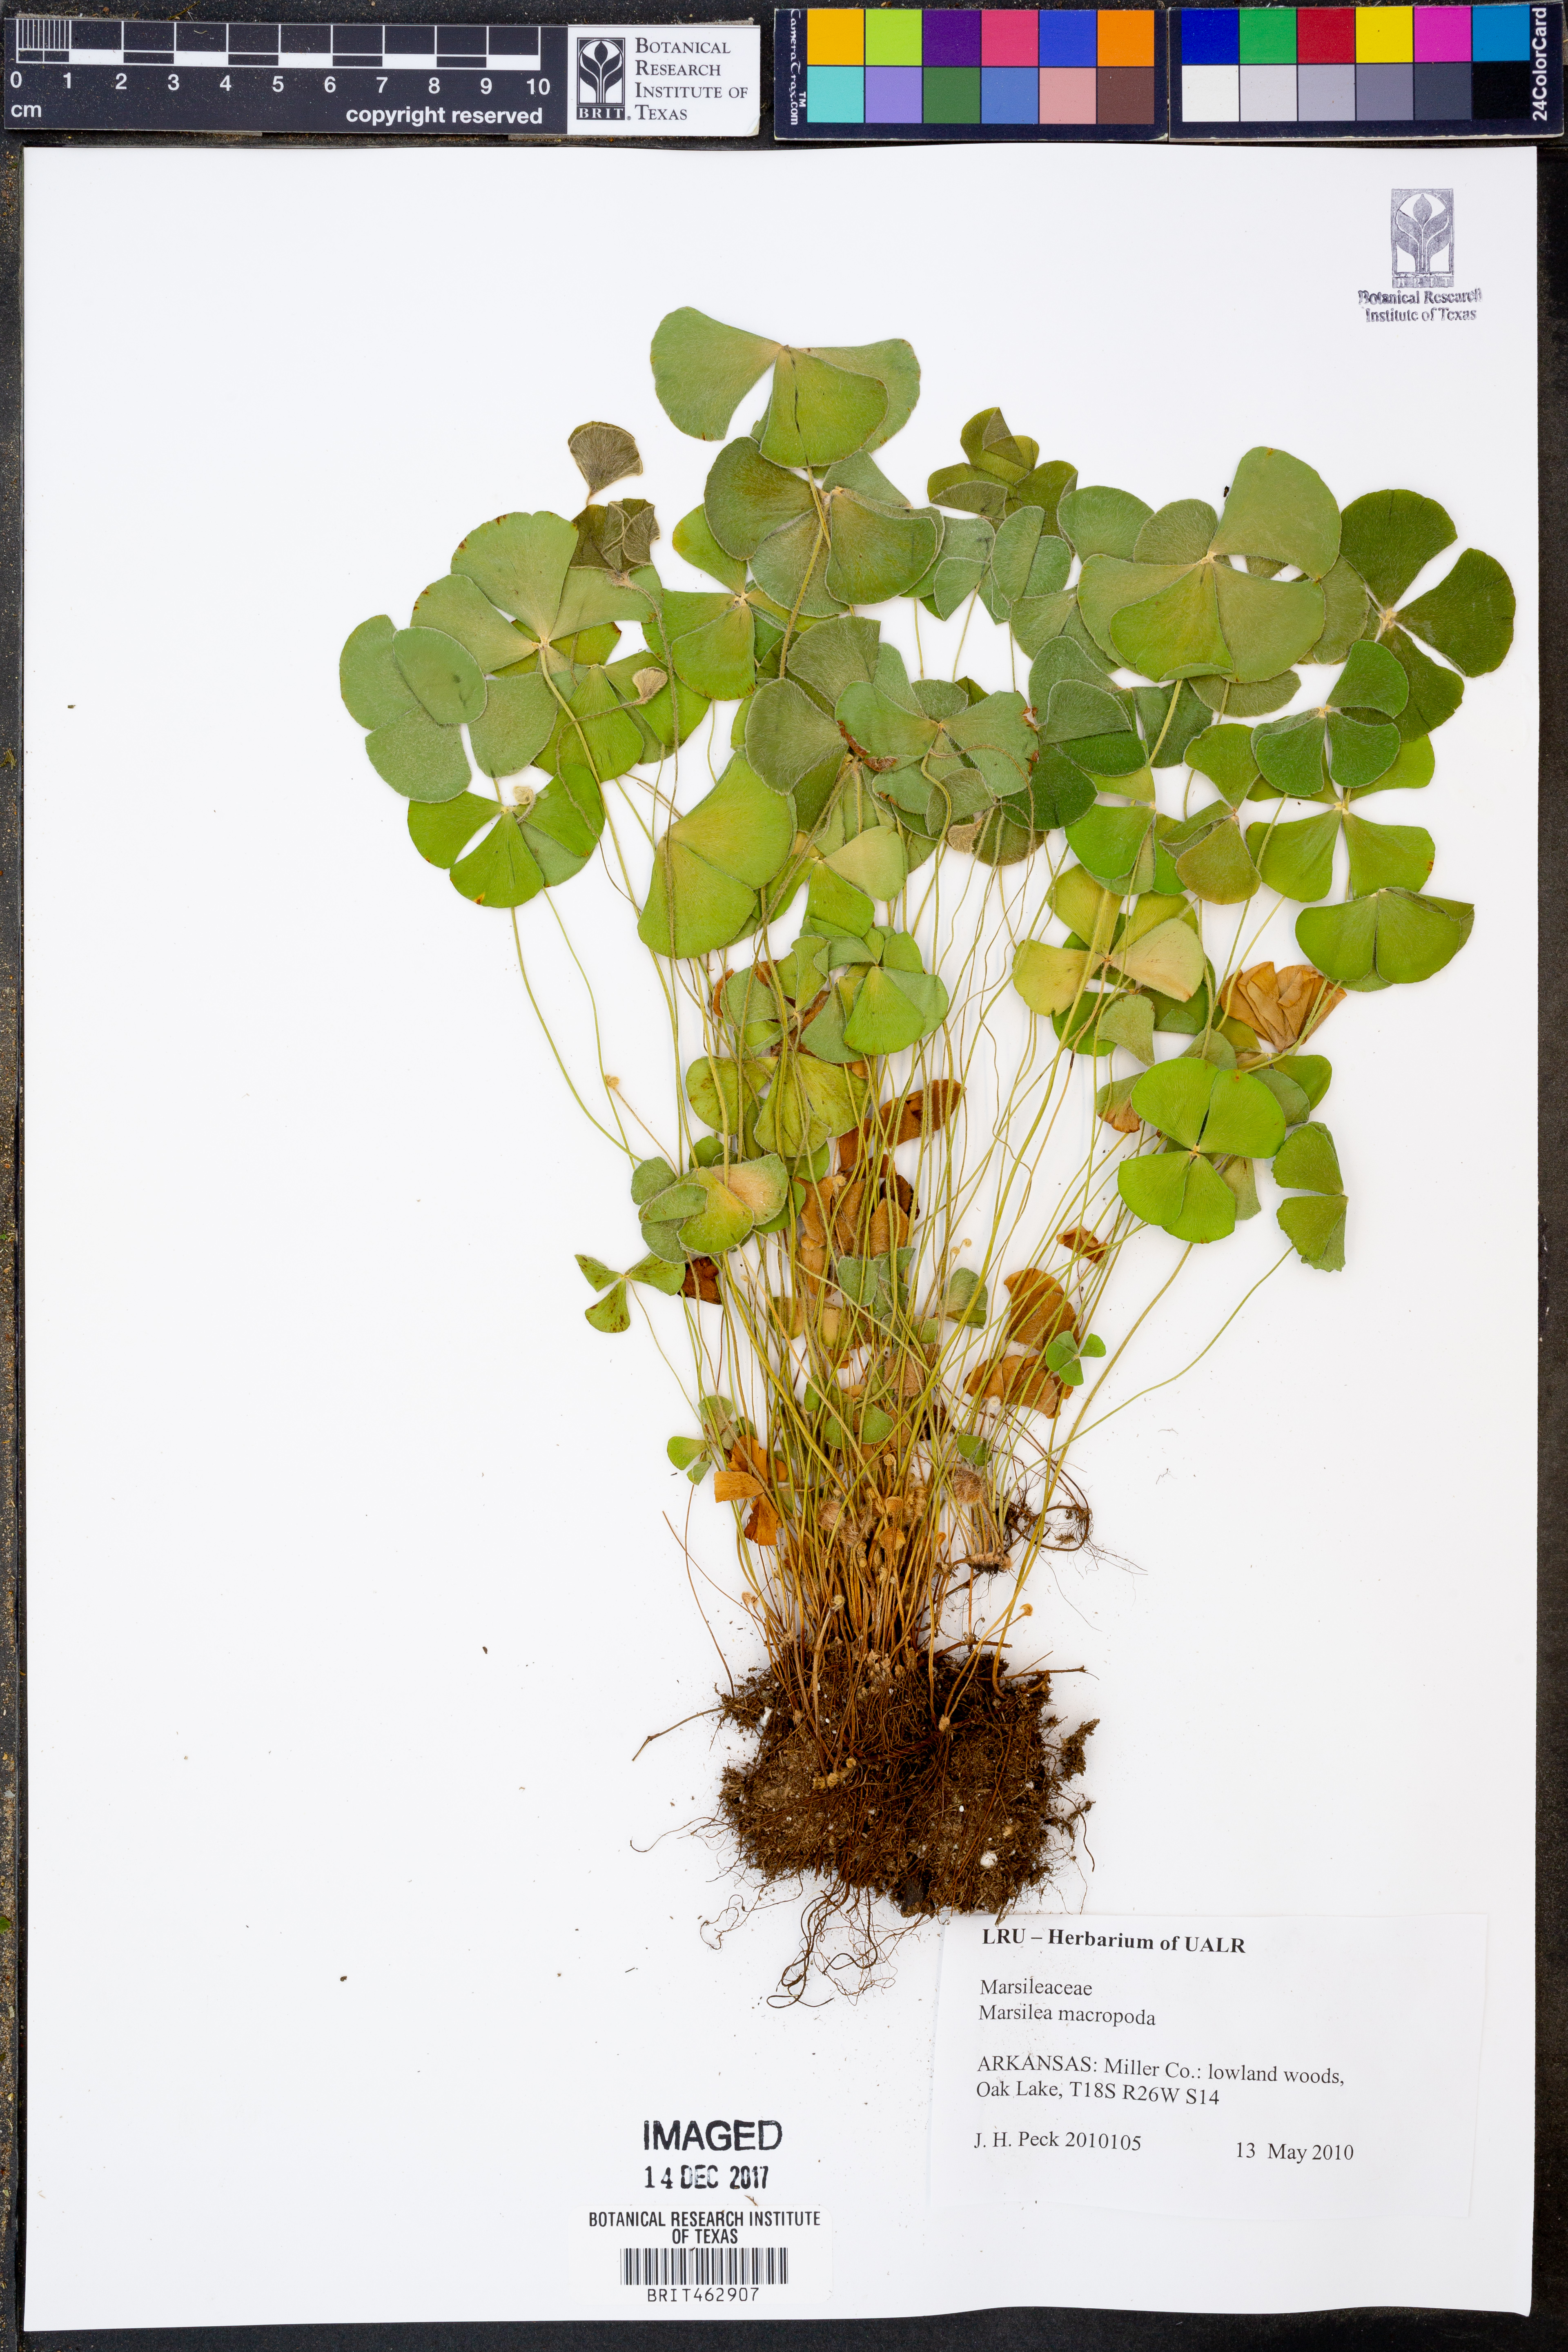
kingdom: Plantae
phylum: Tracheophyta
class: Polypodiopsida
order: Salviniales
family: Marsileaceae
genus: Marsilea
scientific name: Marsilea macropoda
